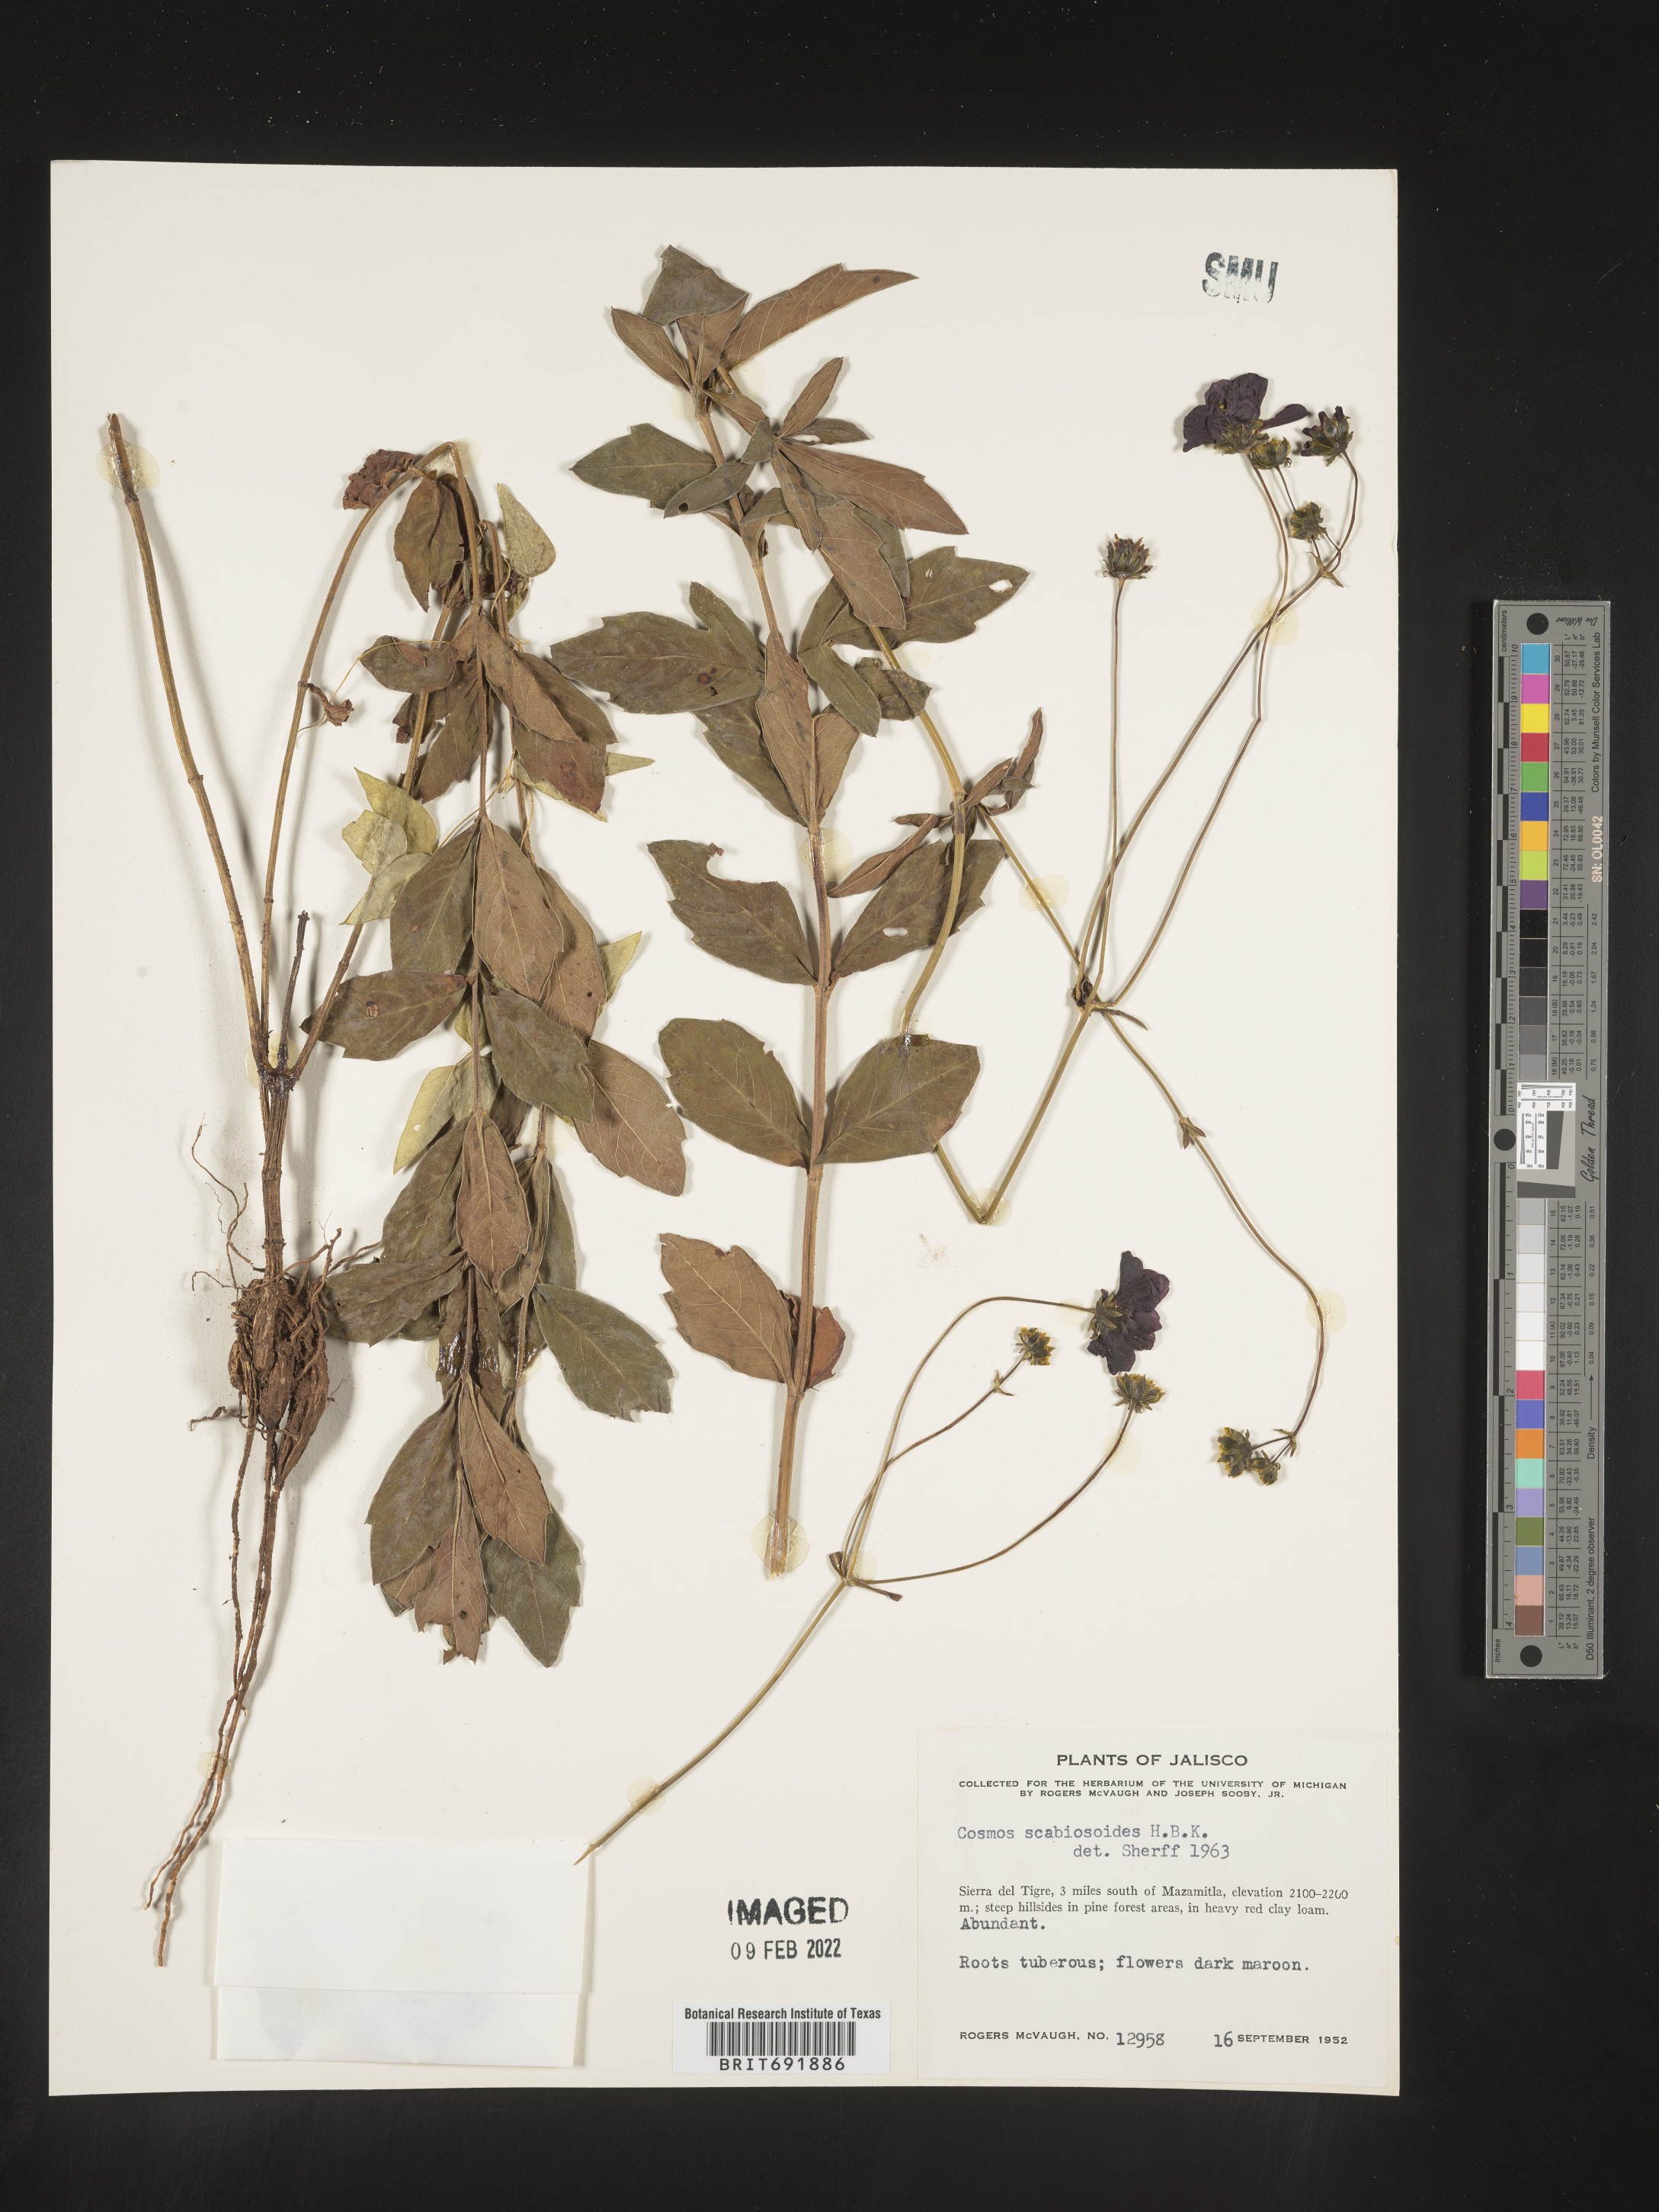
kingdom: Plantae
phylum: Tracheophyta
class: Magnoliopsida
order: Asterales
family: Asteraceae
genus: Cosmos
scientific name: Cosmos
